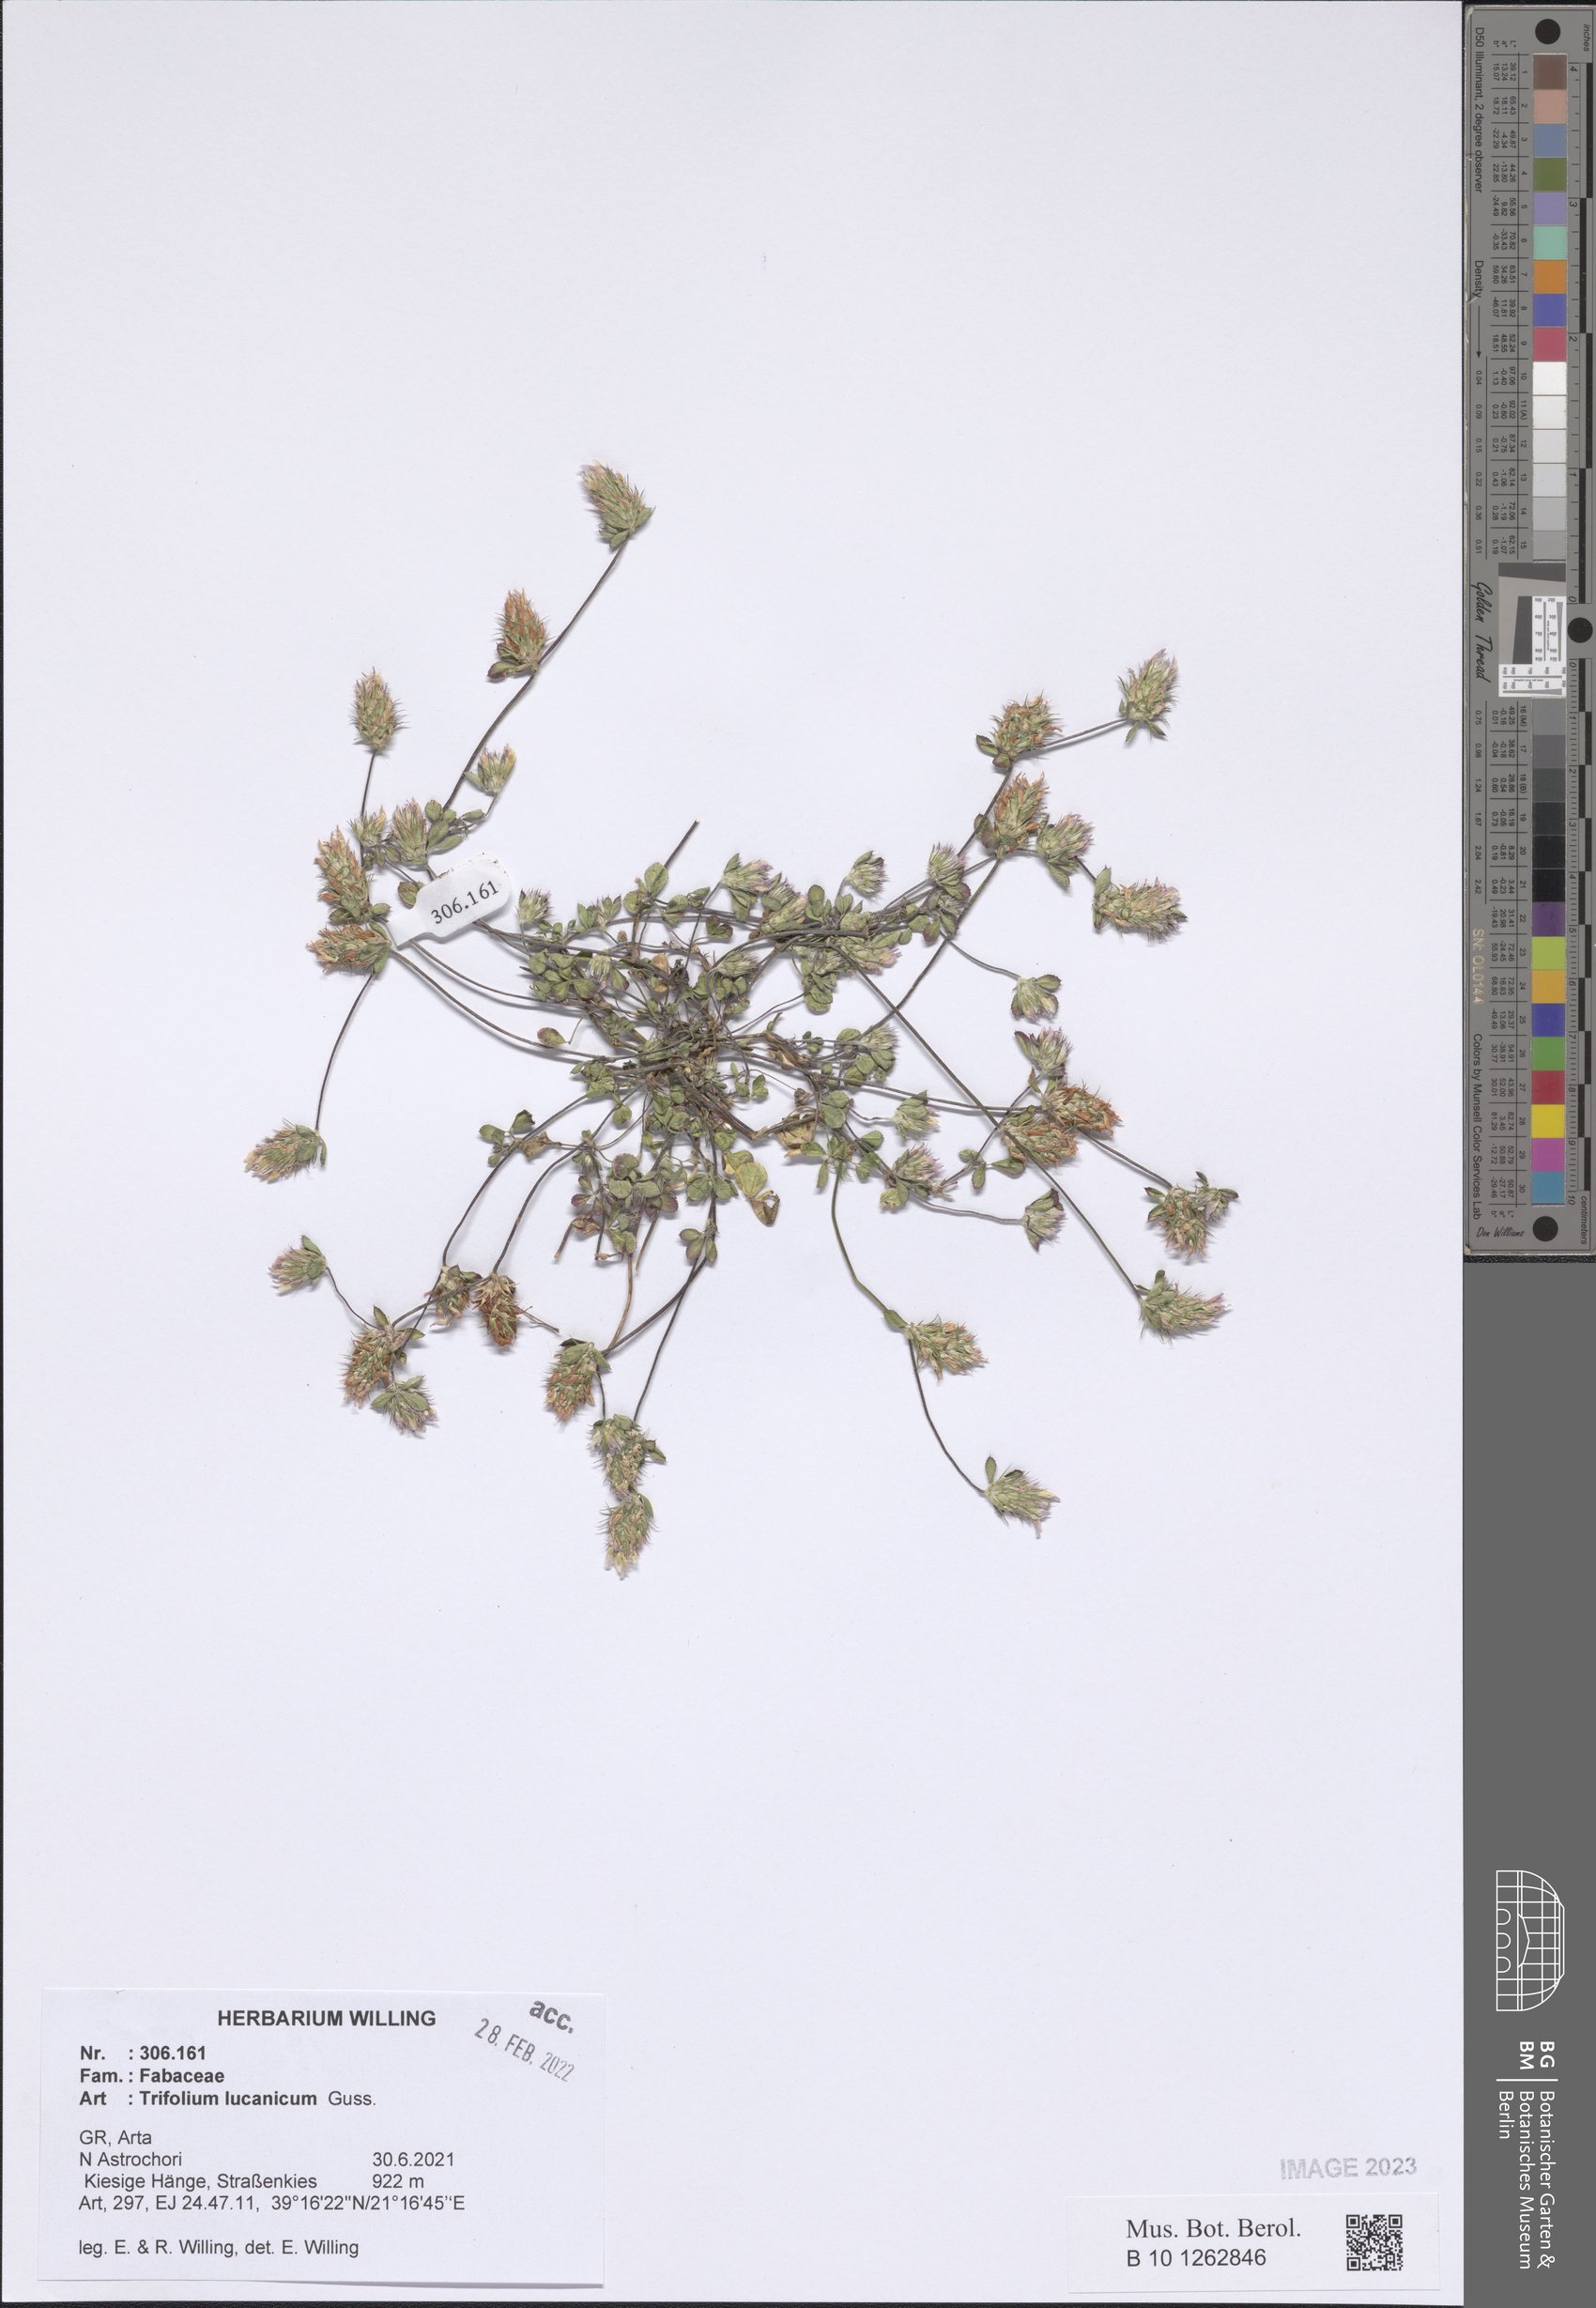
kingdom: Plantae
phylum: Tracheophyta
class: Magnoliopsida
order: Fabales
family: Fabaceae
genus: Trifolium
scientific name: Trifolium lucanicum
